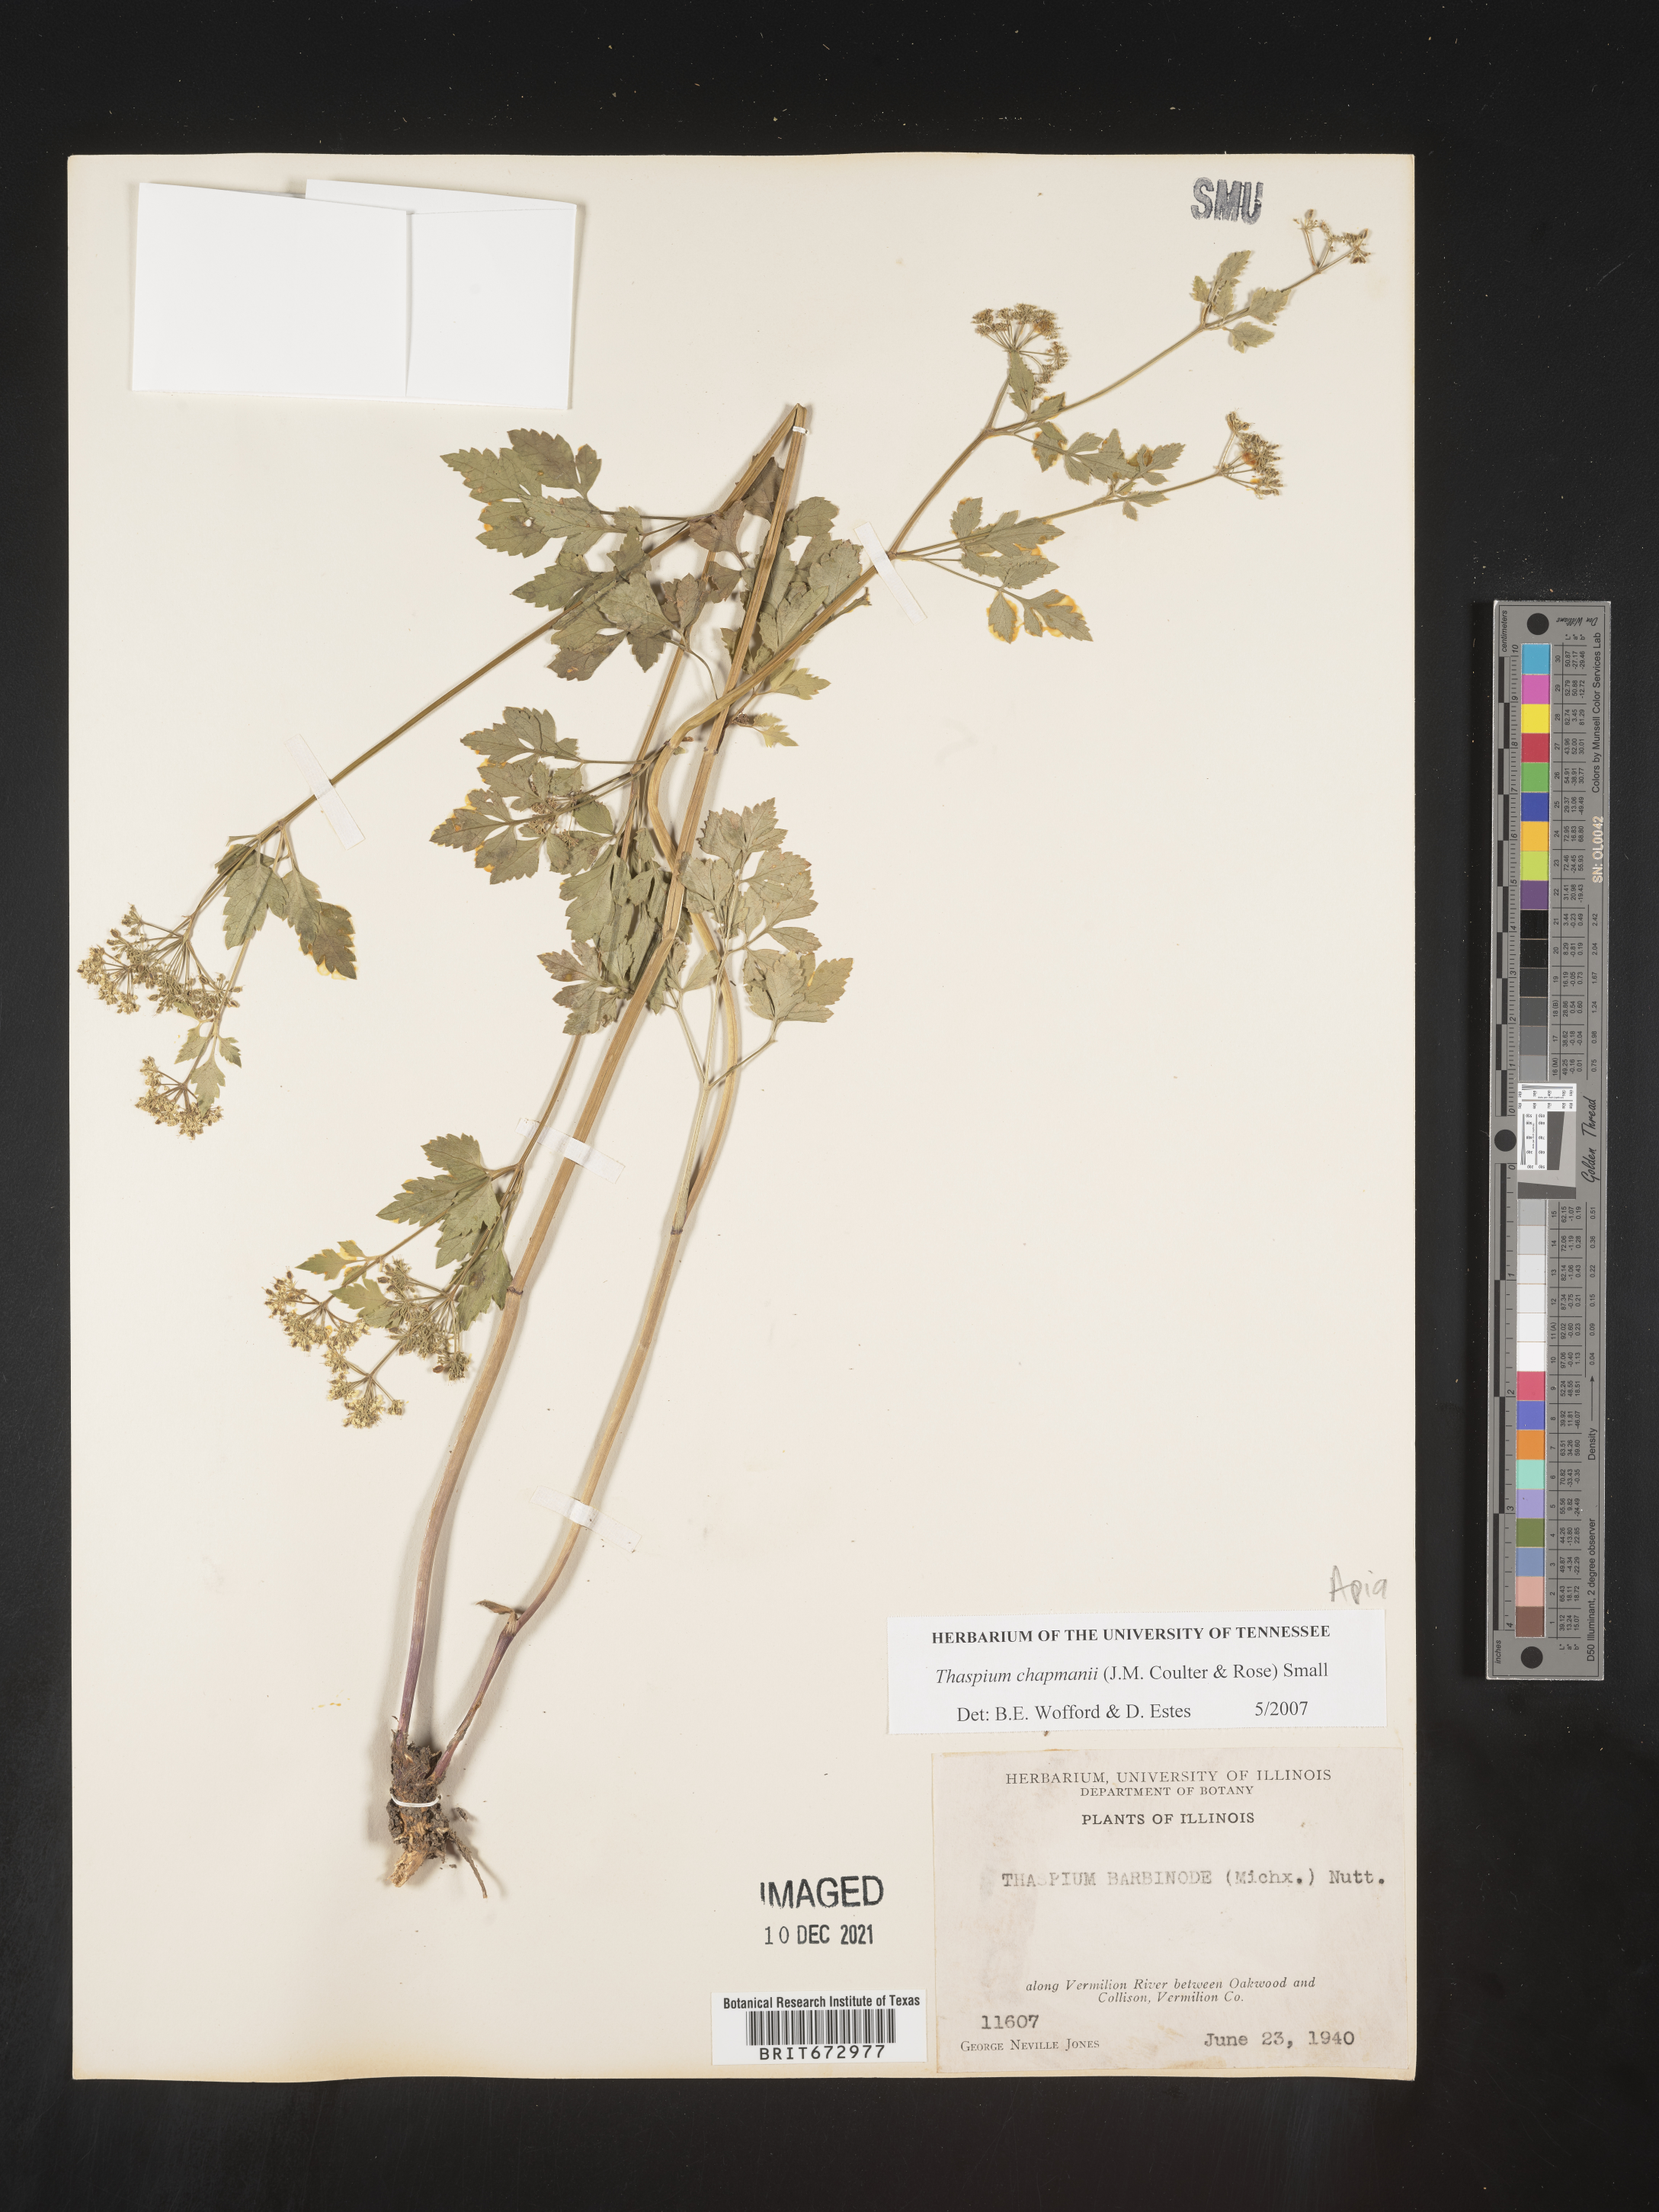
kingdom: Plantae
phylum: Tracheophyta
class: Magnoliopsida
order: Apiales
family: Apiaceae
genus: Thaspium
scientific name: Thaspium barbinode
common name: Bearded meadow-parsnip
